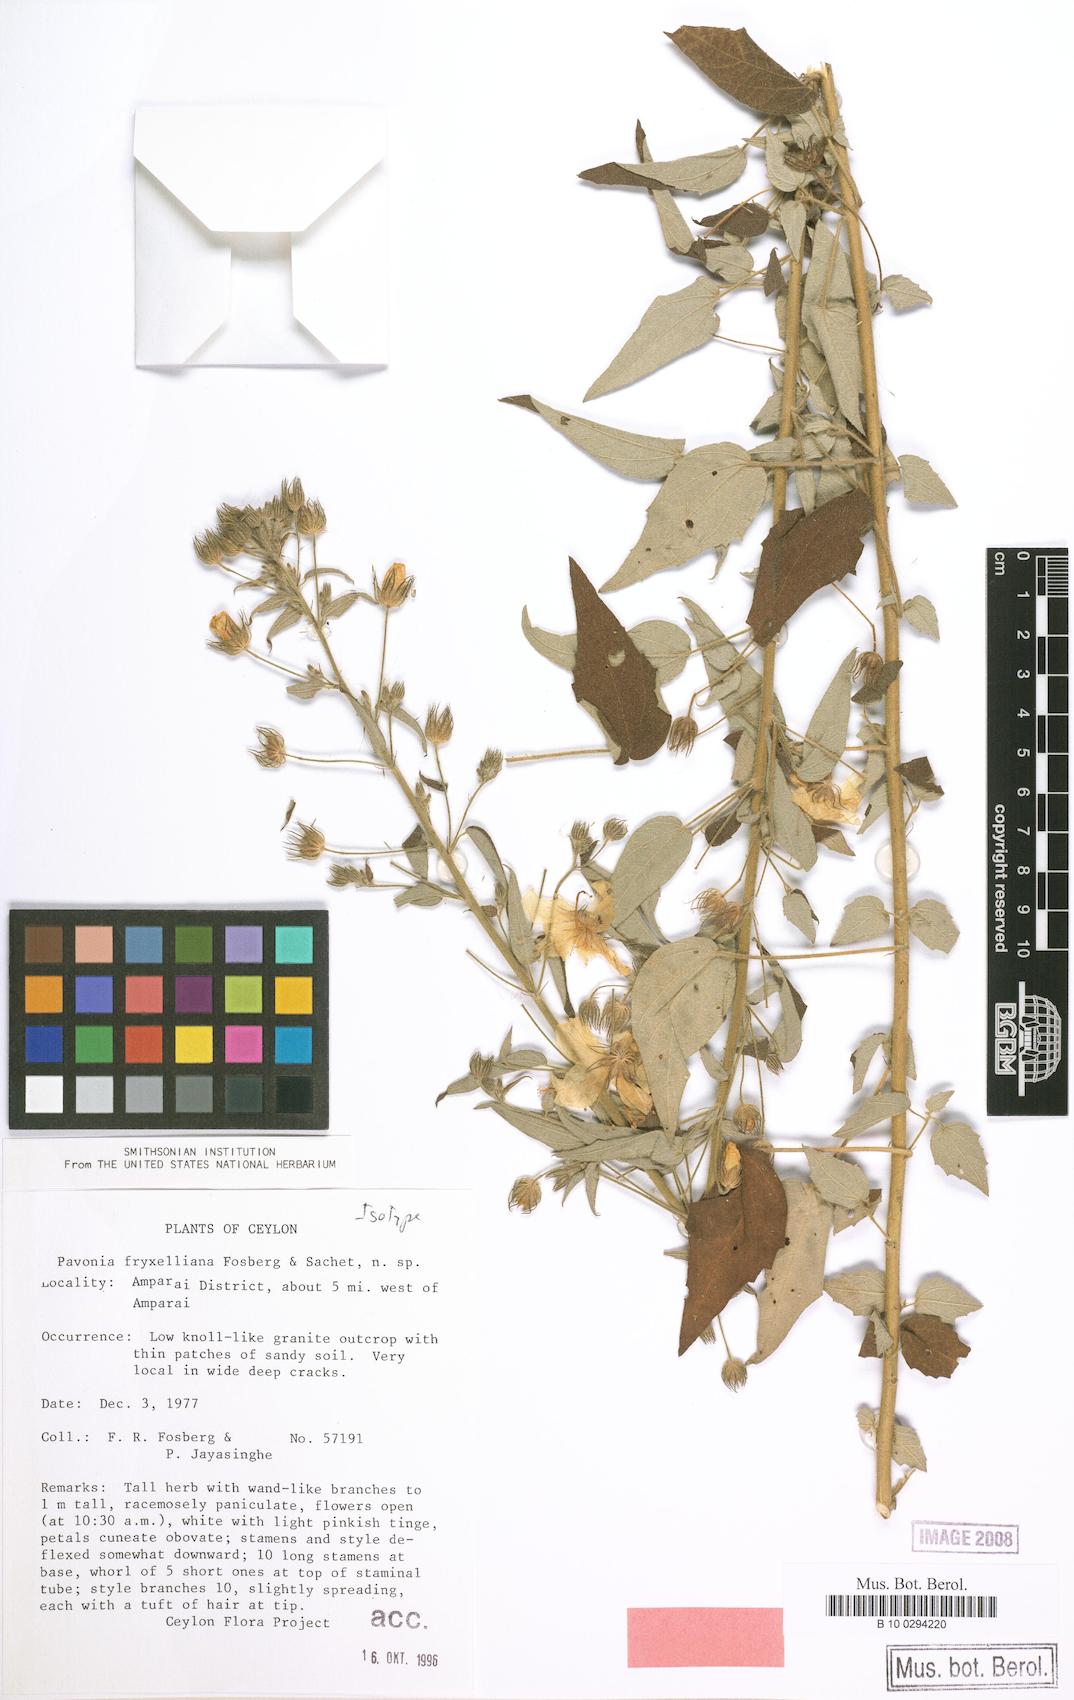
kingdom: Plantae
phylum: Tracheophyta
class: Magnoliopsida
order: Malvales
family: Malvaceae
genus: Pavonia
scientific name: Pavonia fryxelliana
